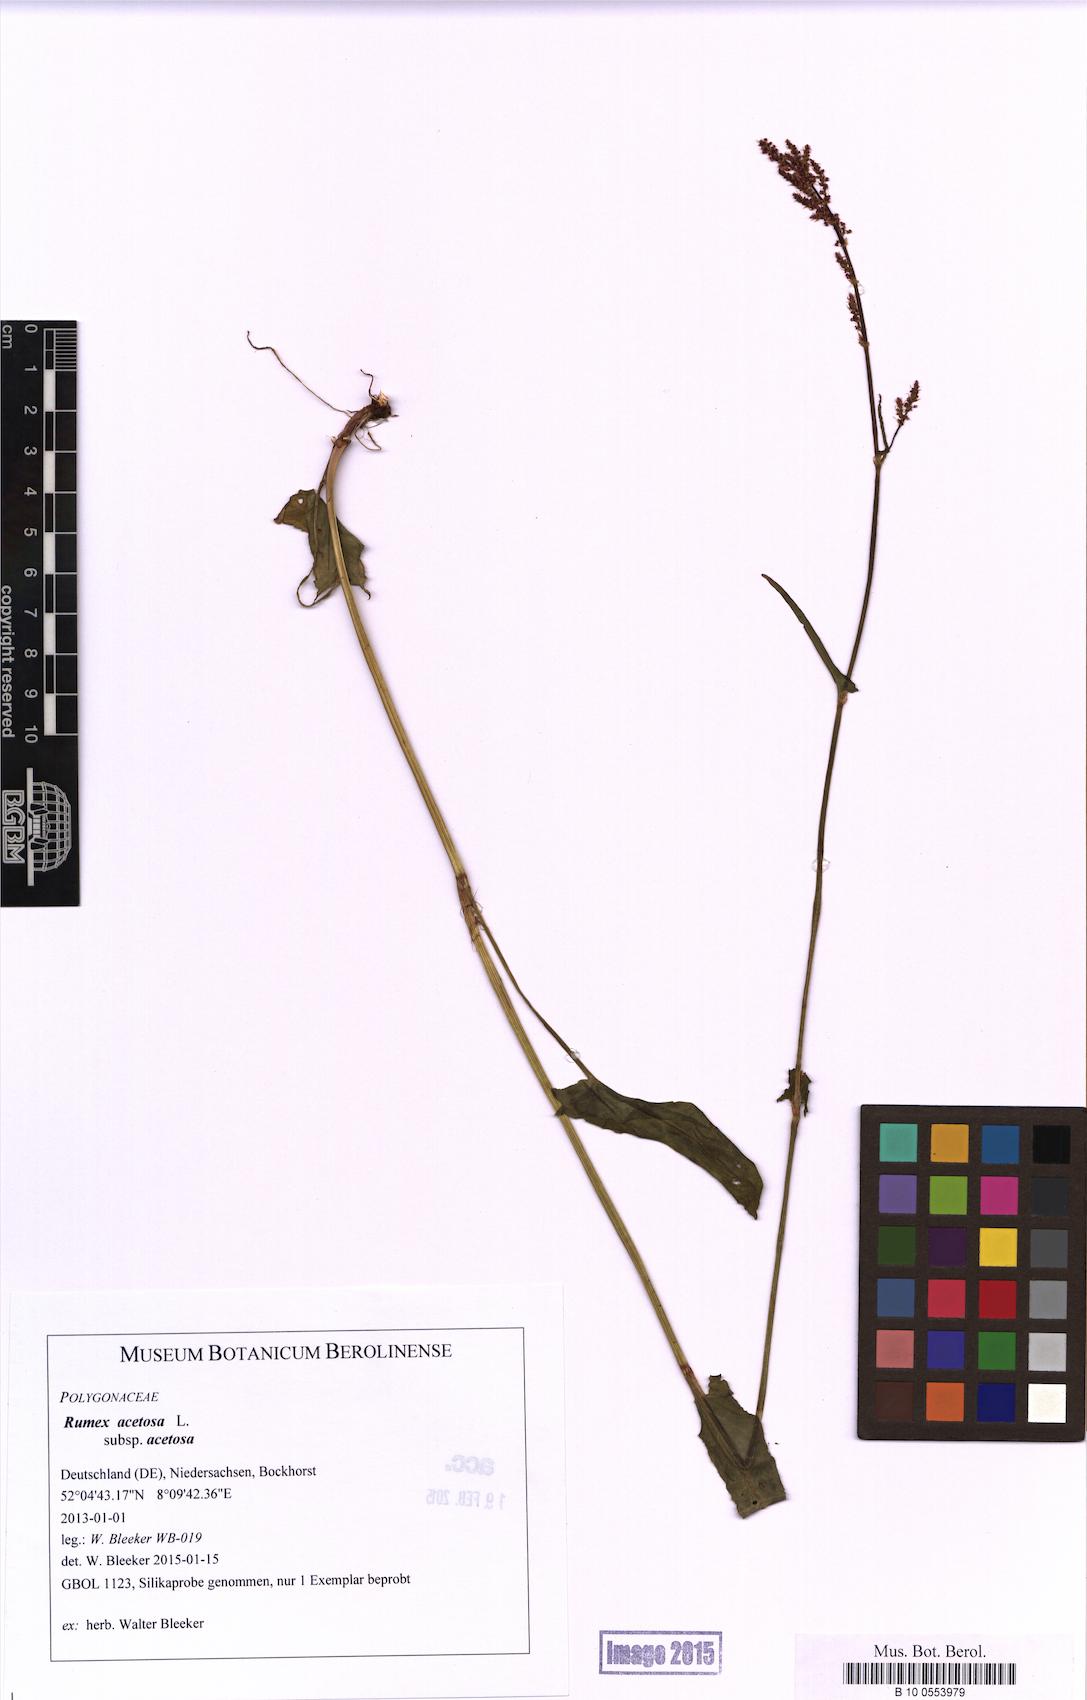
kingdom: Plantae
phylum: Tracheophyta
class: Magnoliopsida
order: Caryophyllales
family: Polygonaceae
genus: Rumex
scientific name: Rumex acetosa
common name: Garden sorrel
